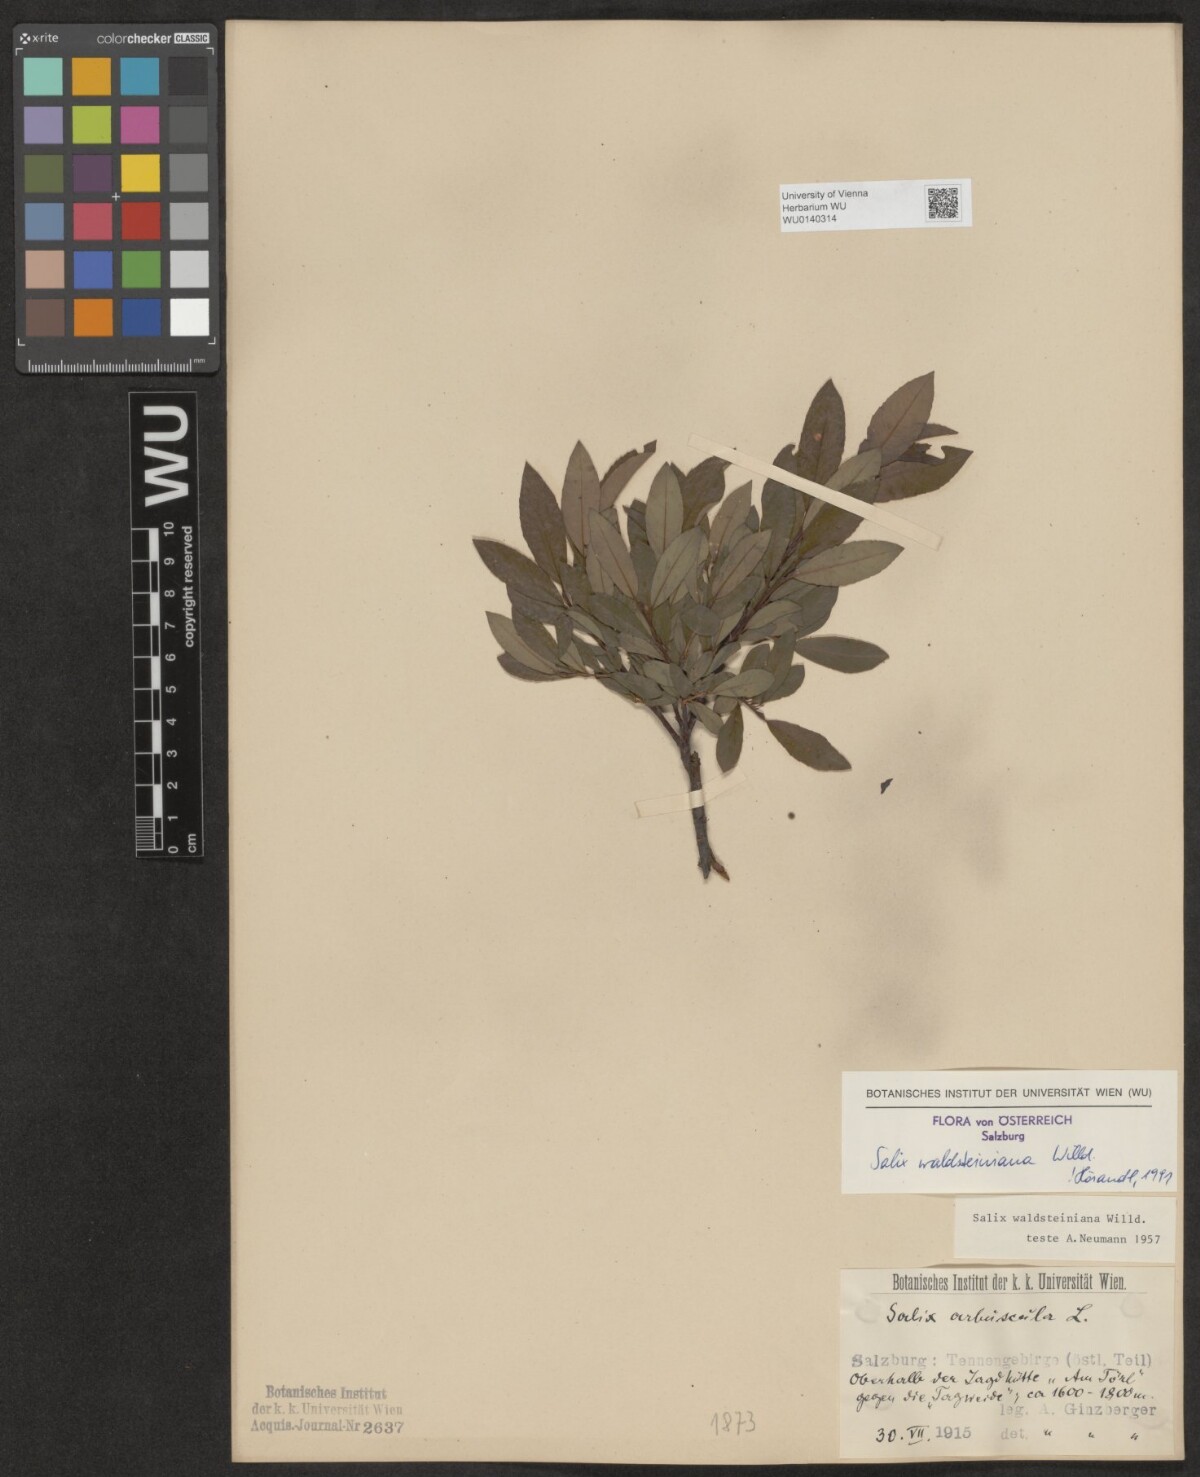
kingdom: Plantae
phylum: Tracheophyta
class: Magnoliopsida
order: Malpighiales
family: Salicaceae
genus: Salix
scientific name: Salix waldsteiniana
